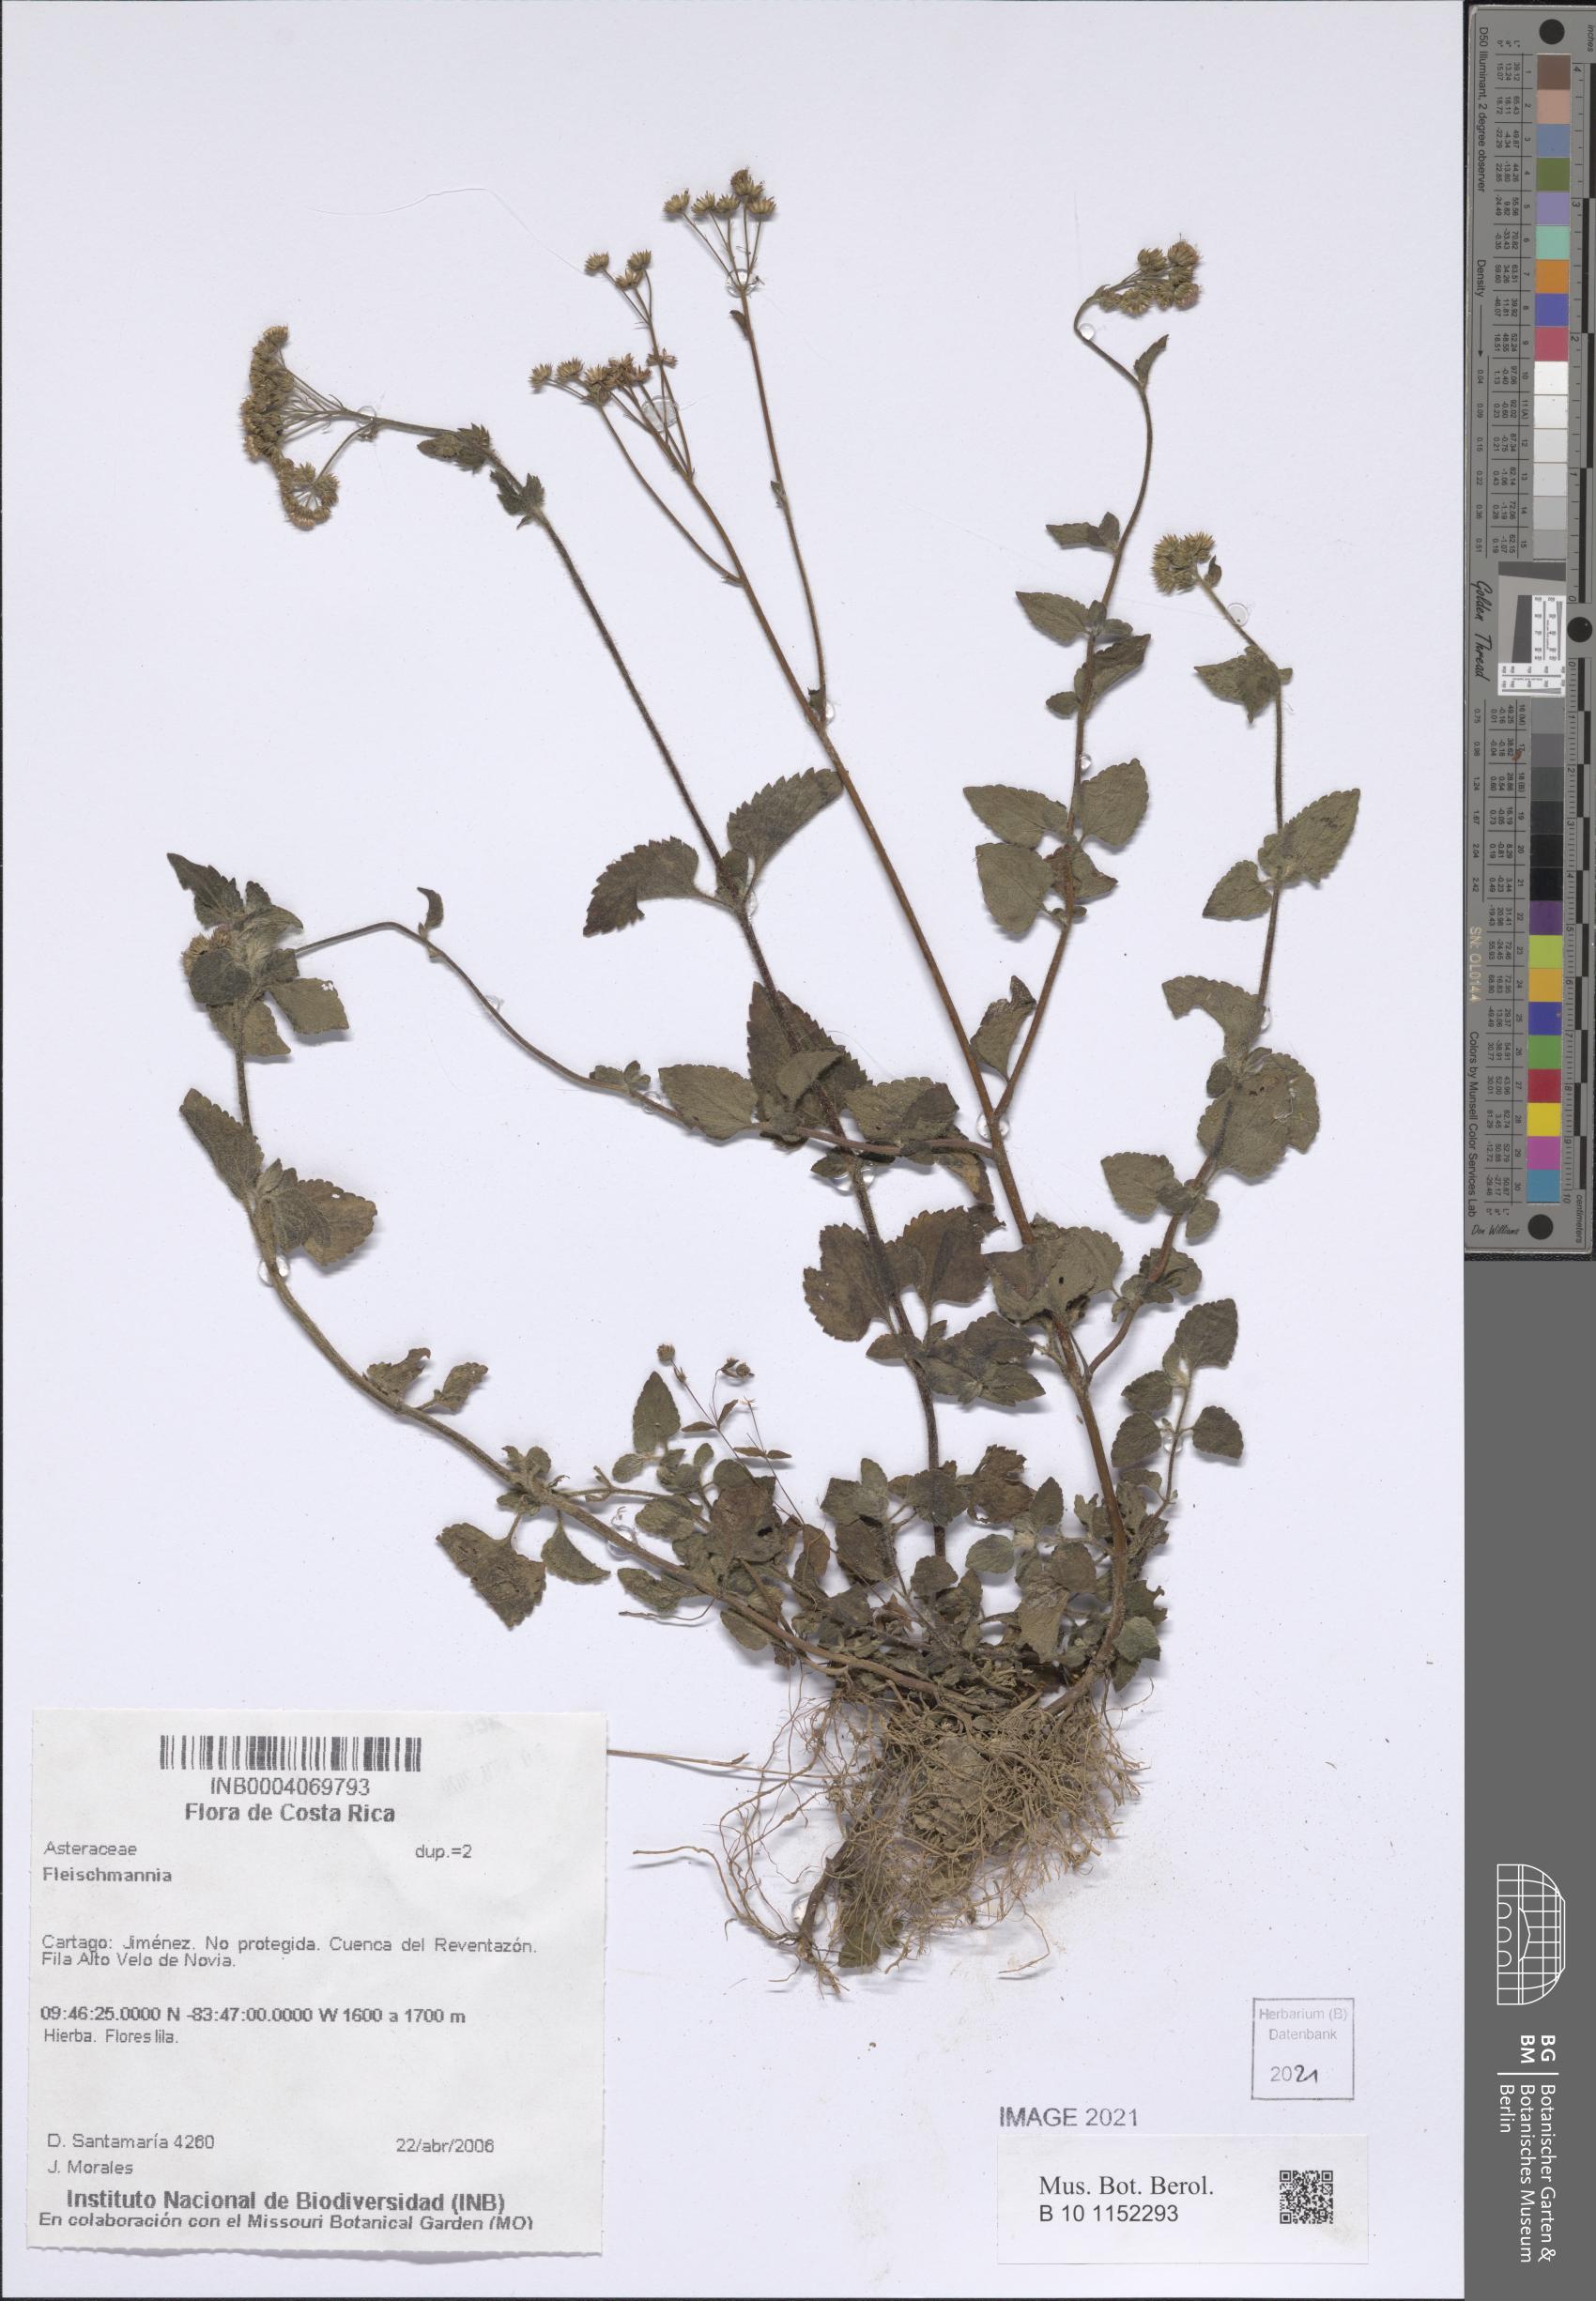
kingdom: Plantae
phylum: Tracheophyta
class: Magnoliopsida
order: Asterales
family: Asteraceae
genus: Fleischmannia
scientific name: Fleischmannia
